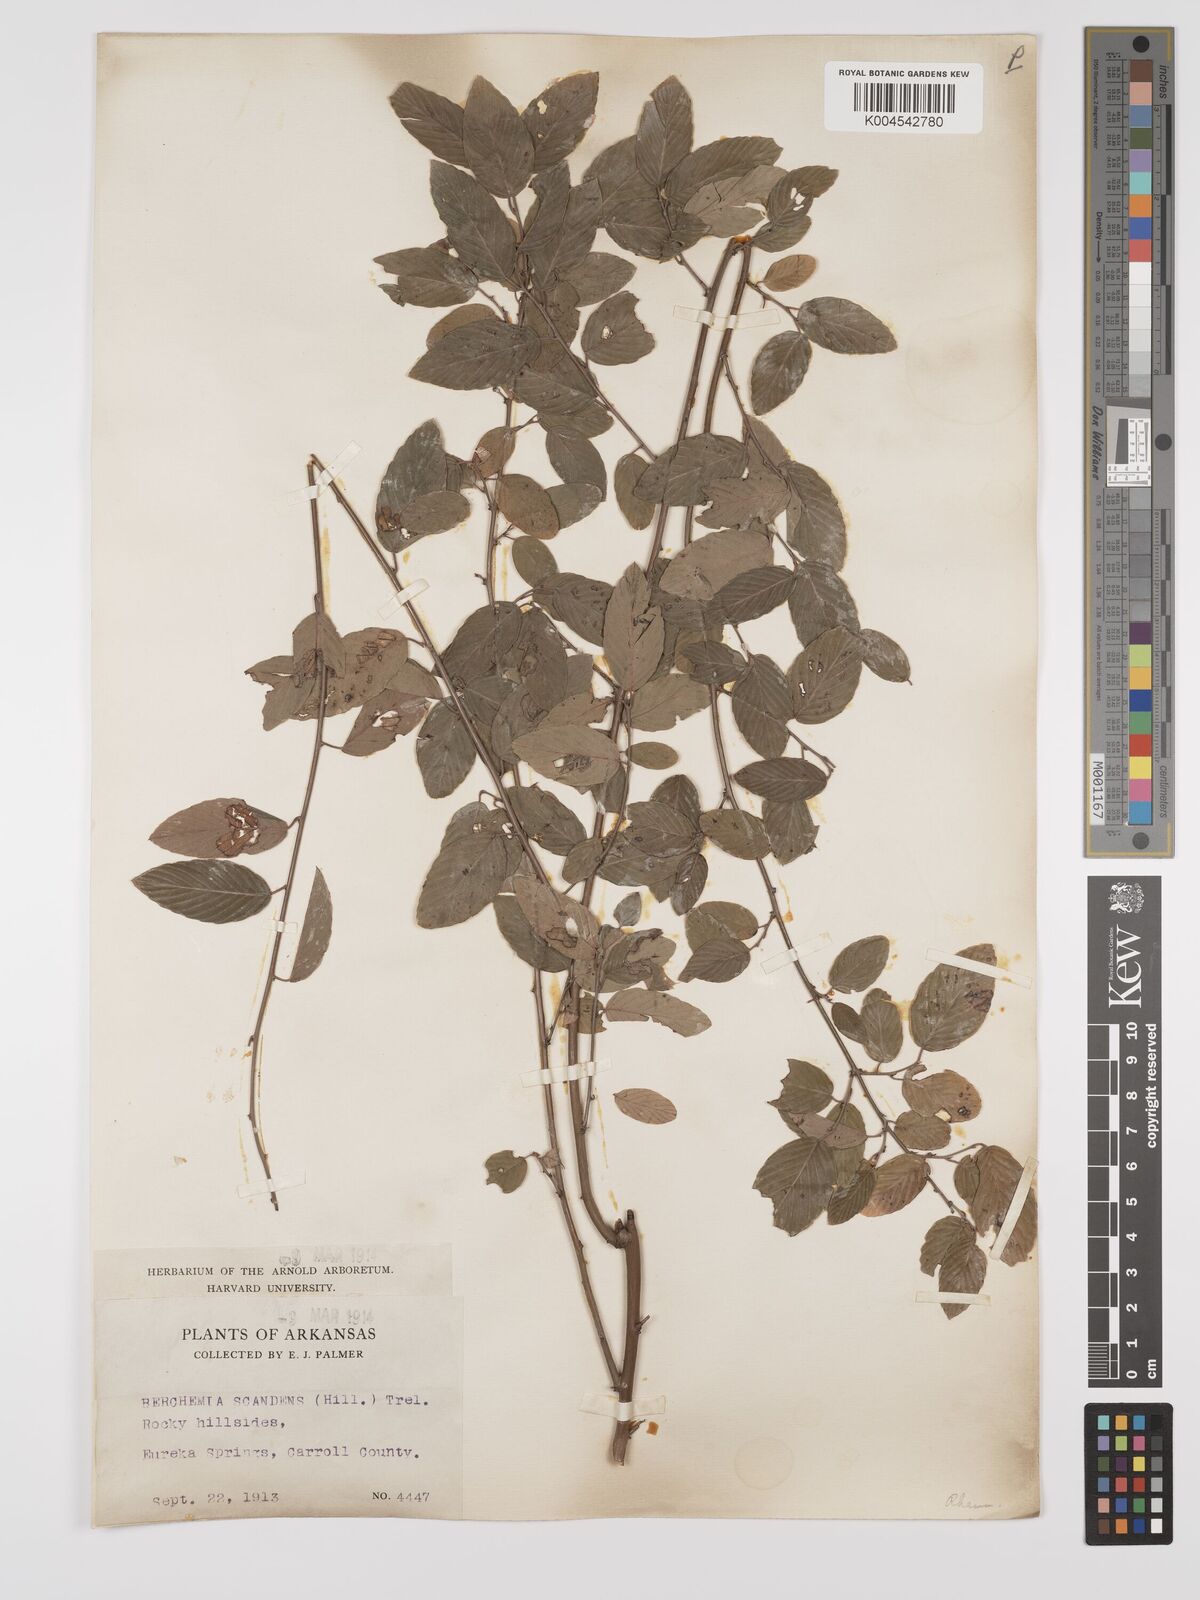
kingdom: Plantae
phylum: Tracheophyta
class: Magnoliopsida
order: Rosales
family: Rhamnaceae
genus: Berchemia
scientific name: Berchemia scandens
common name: Supplejack
